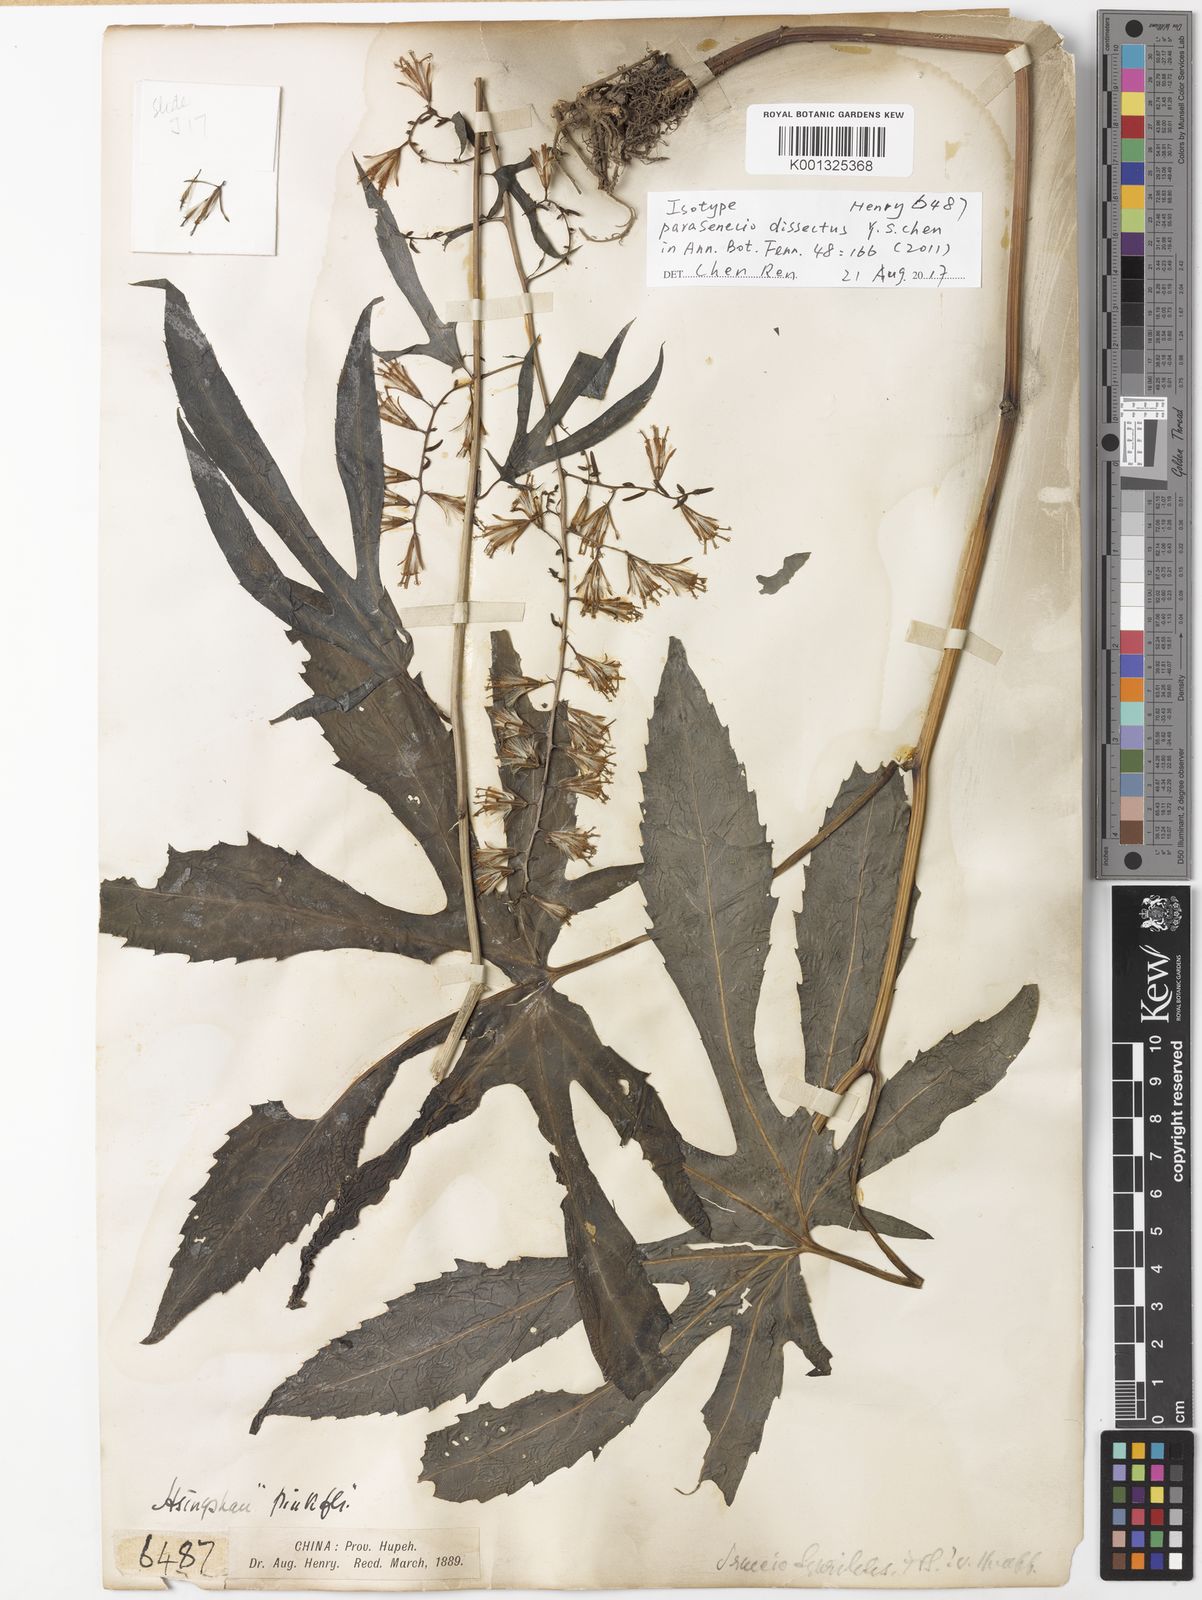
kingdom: Plantae
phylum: Tracheophyta
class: Magnoliopsida
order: Asterales
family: Asteraceae
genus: Parasenecio
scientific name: Parasenecio dissectus
